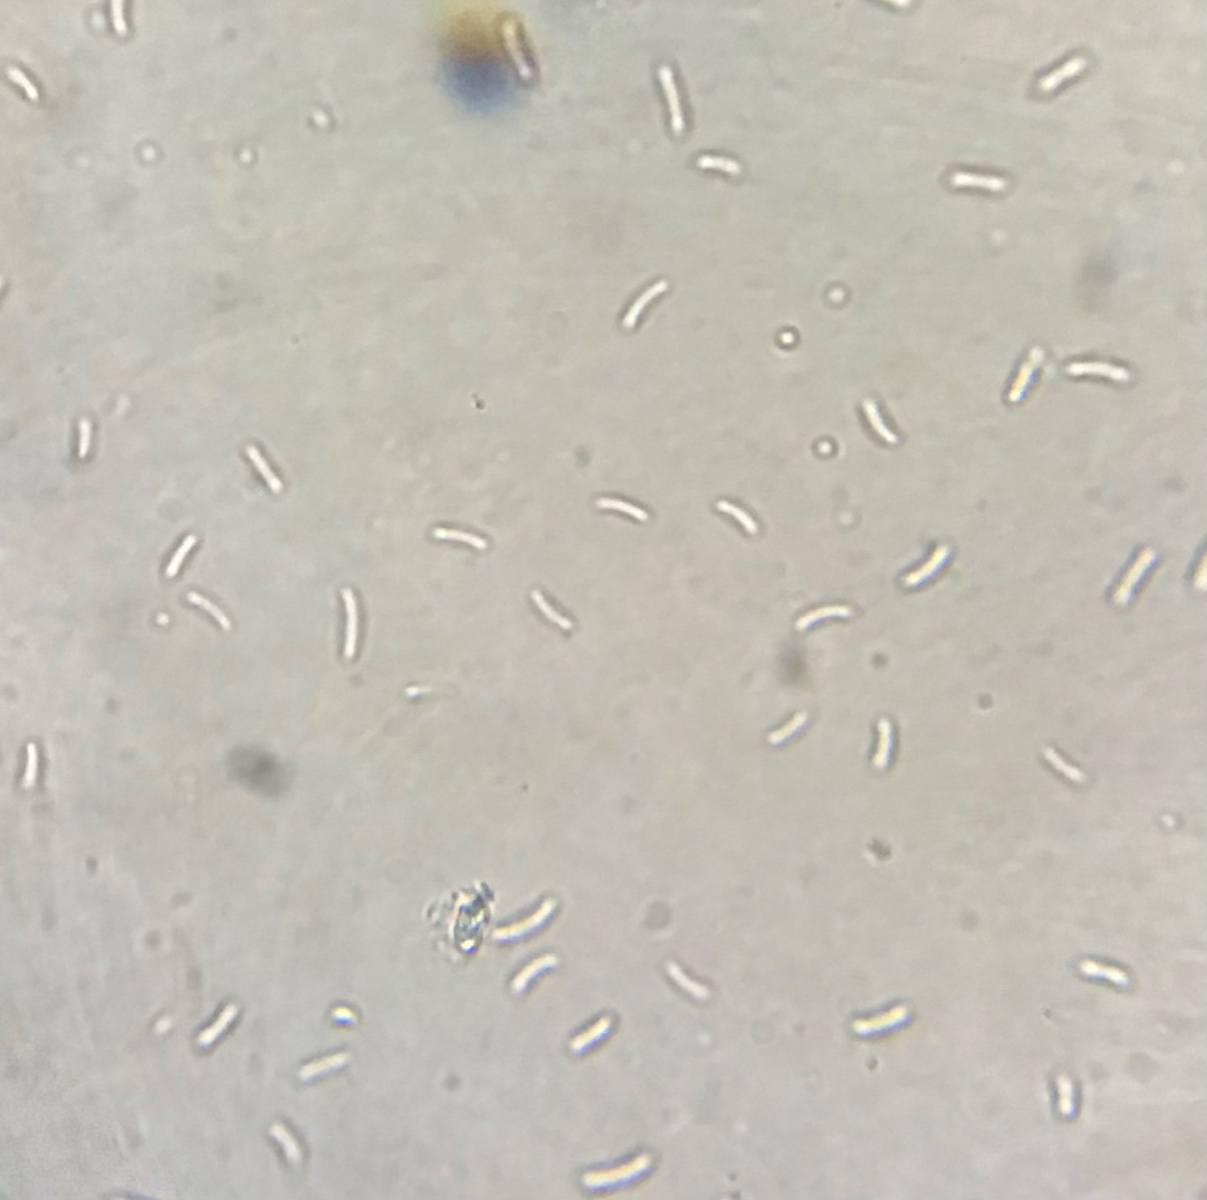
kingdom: Fungi
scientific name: Fungi
